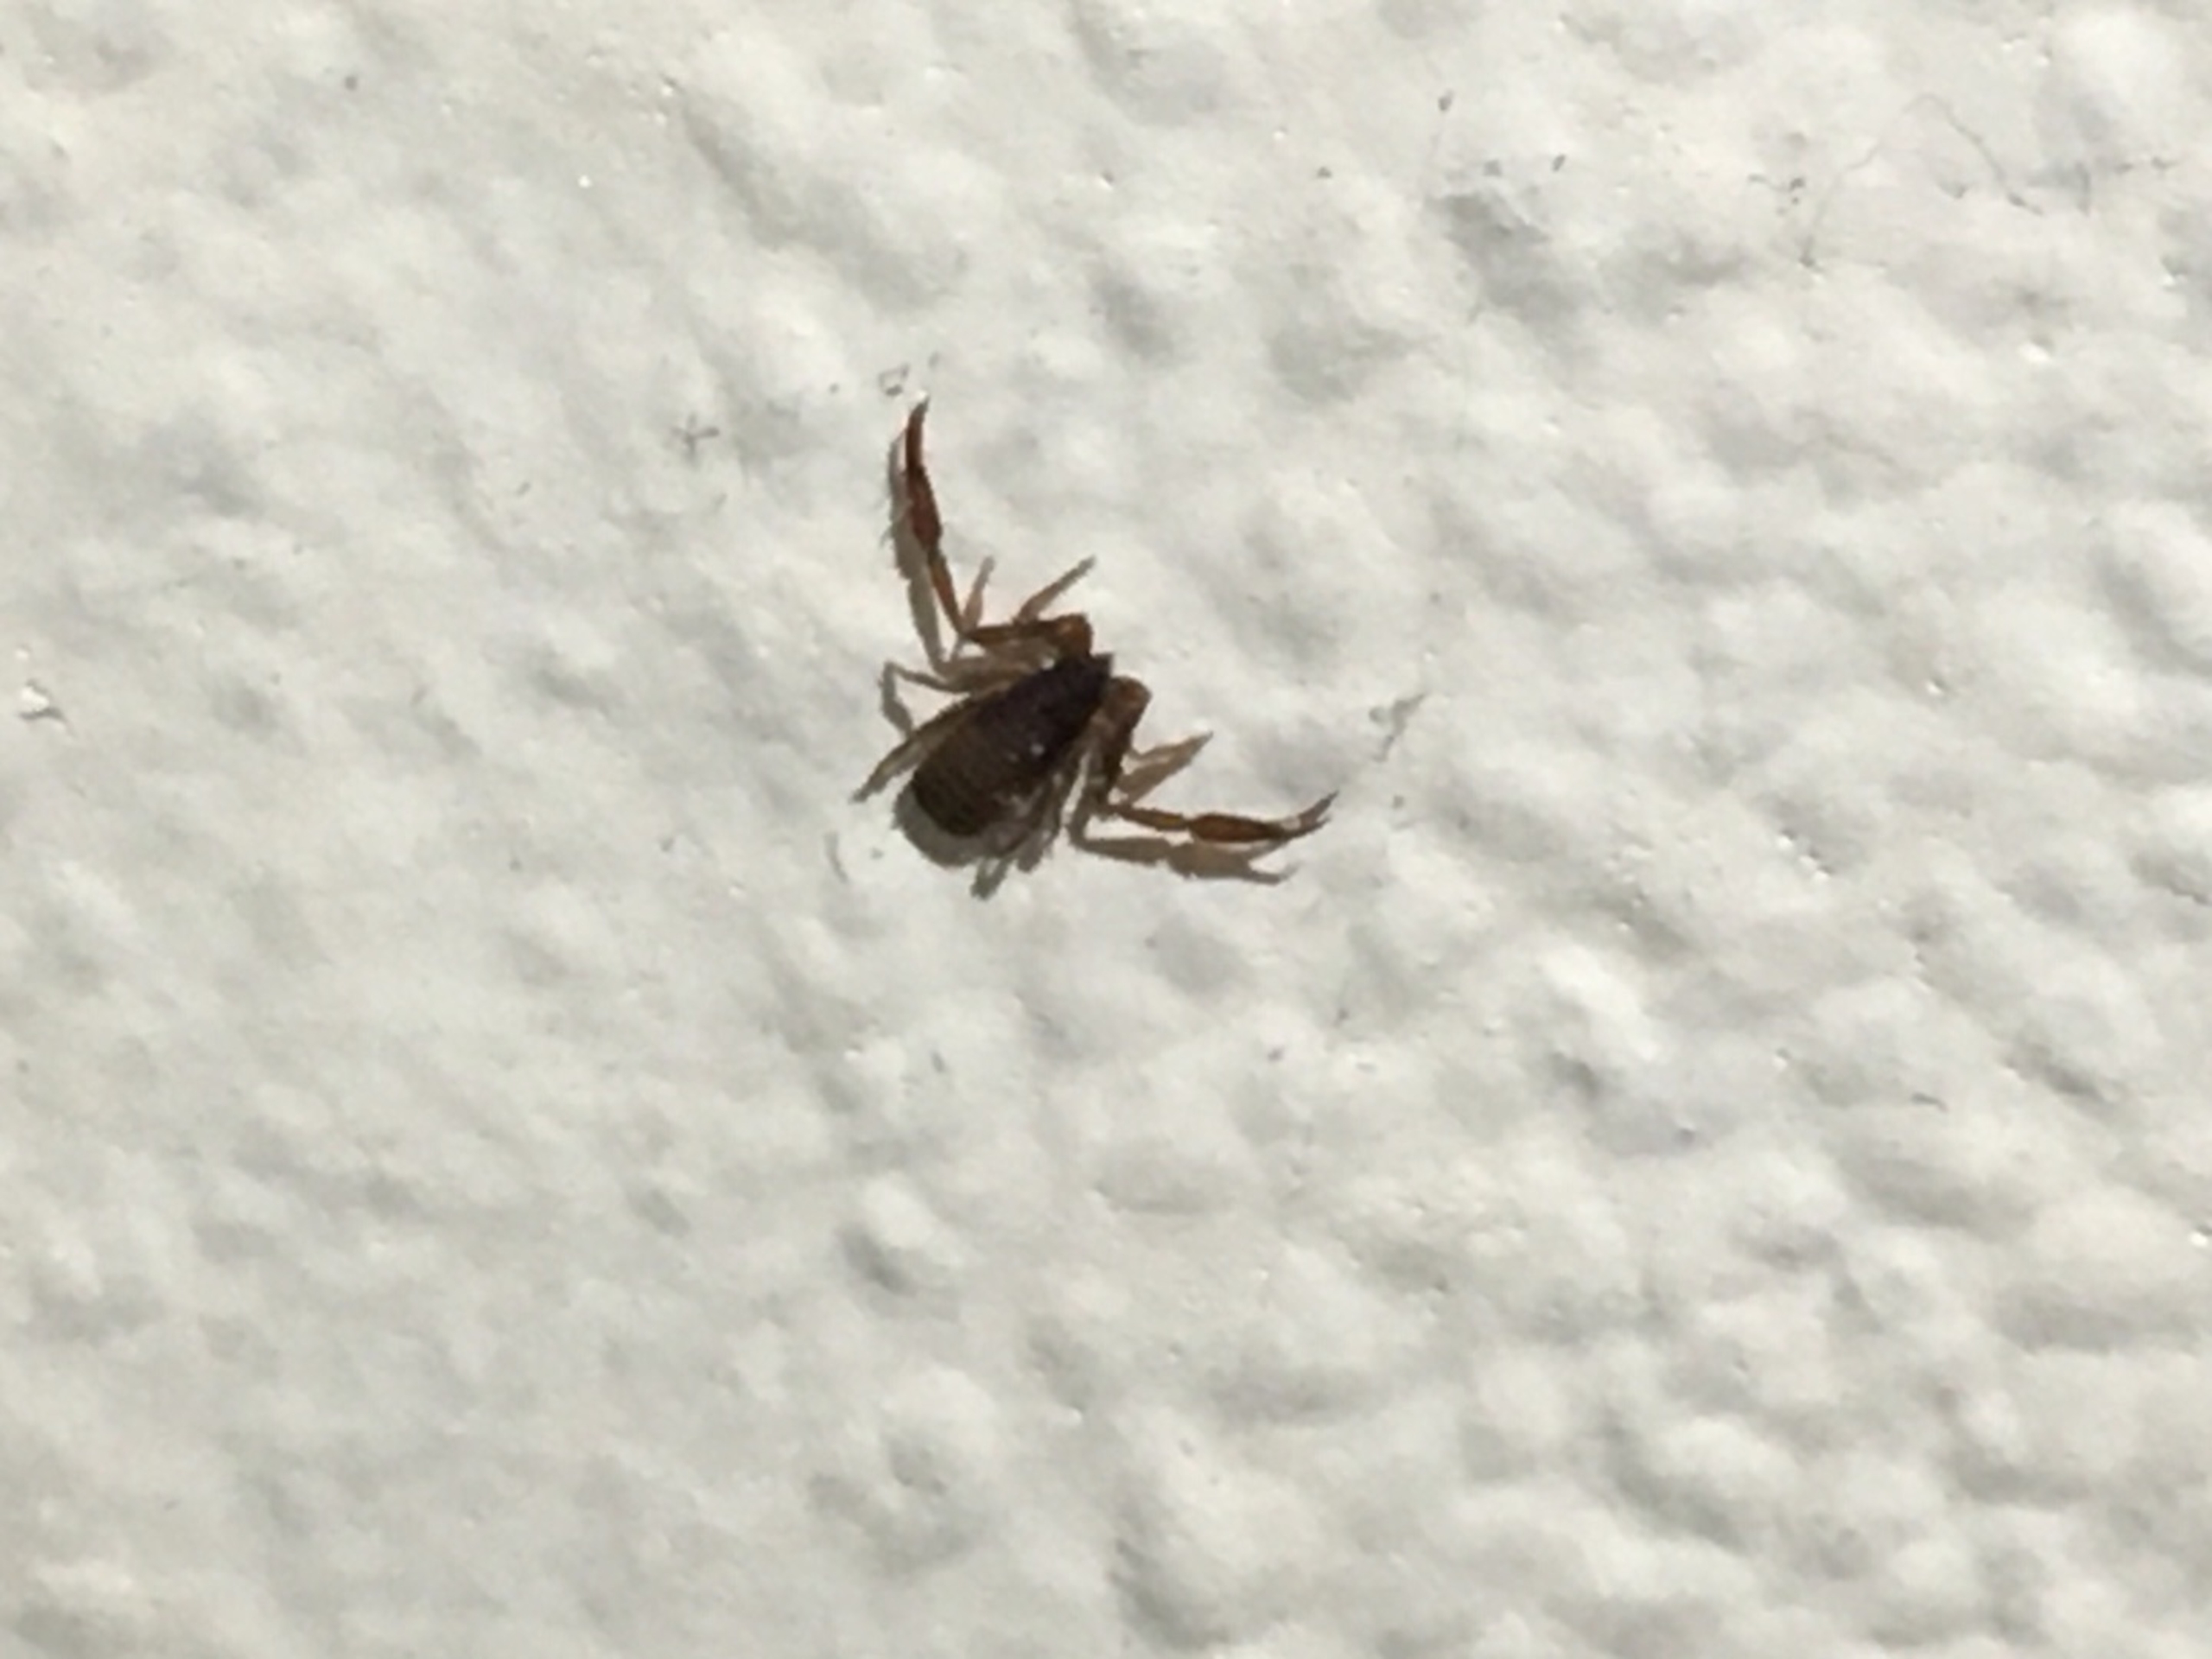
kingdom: Animalia
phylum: Arthropoda
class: Arachnida
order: Pseudoscorpiones
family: Cheliferidae
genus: Chelifer
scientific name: Chelifer cancroides
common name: Bogskorpion
